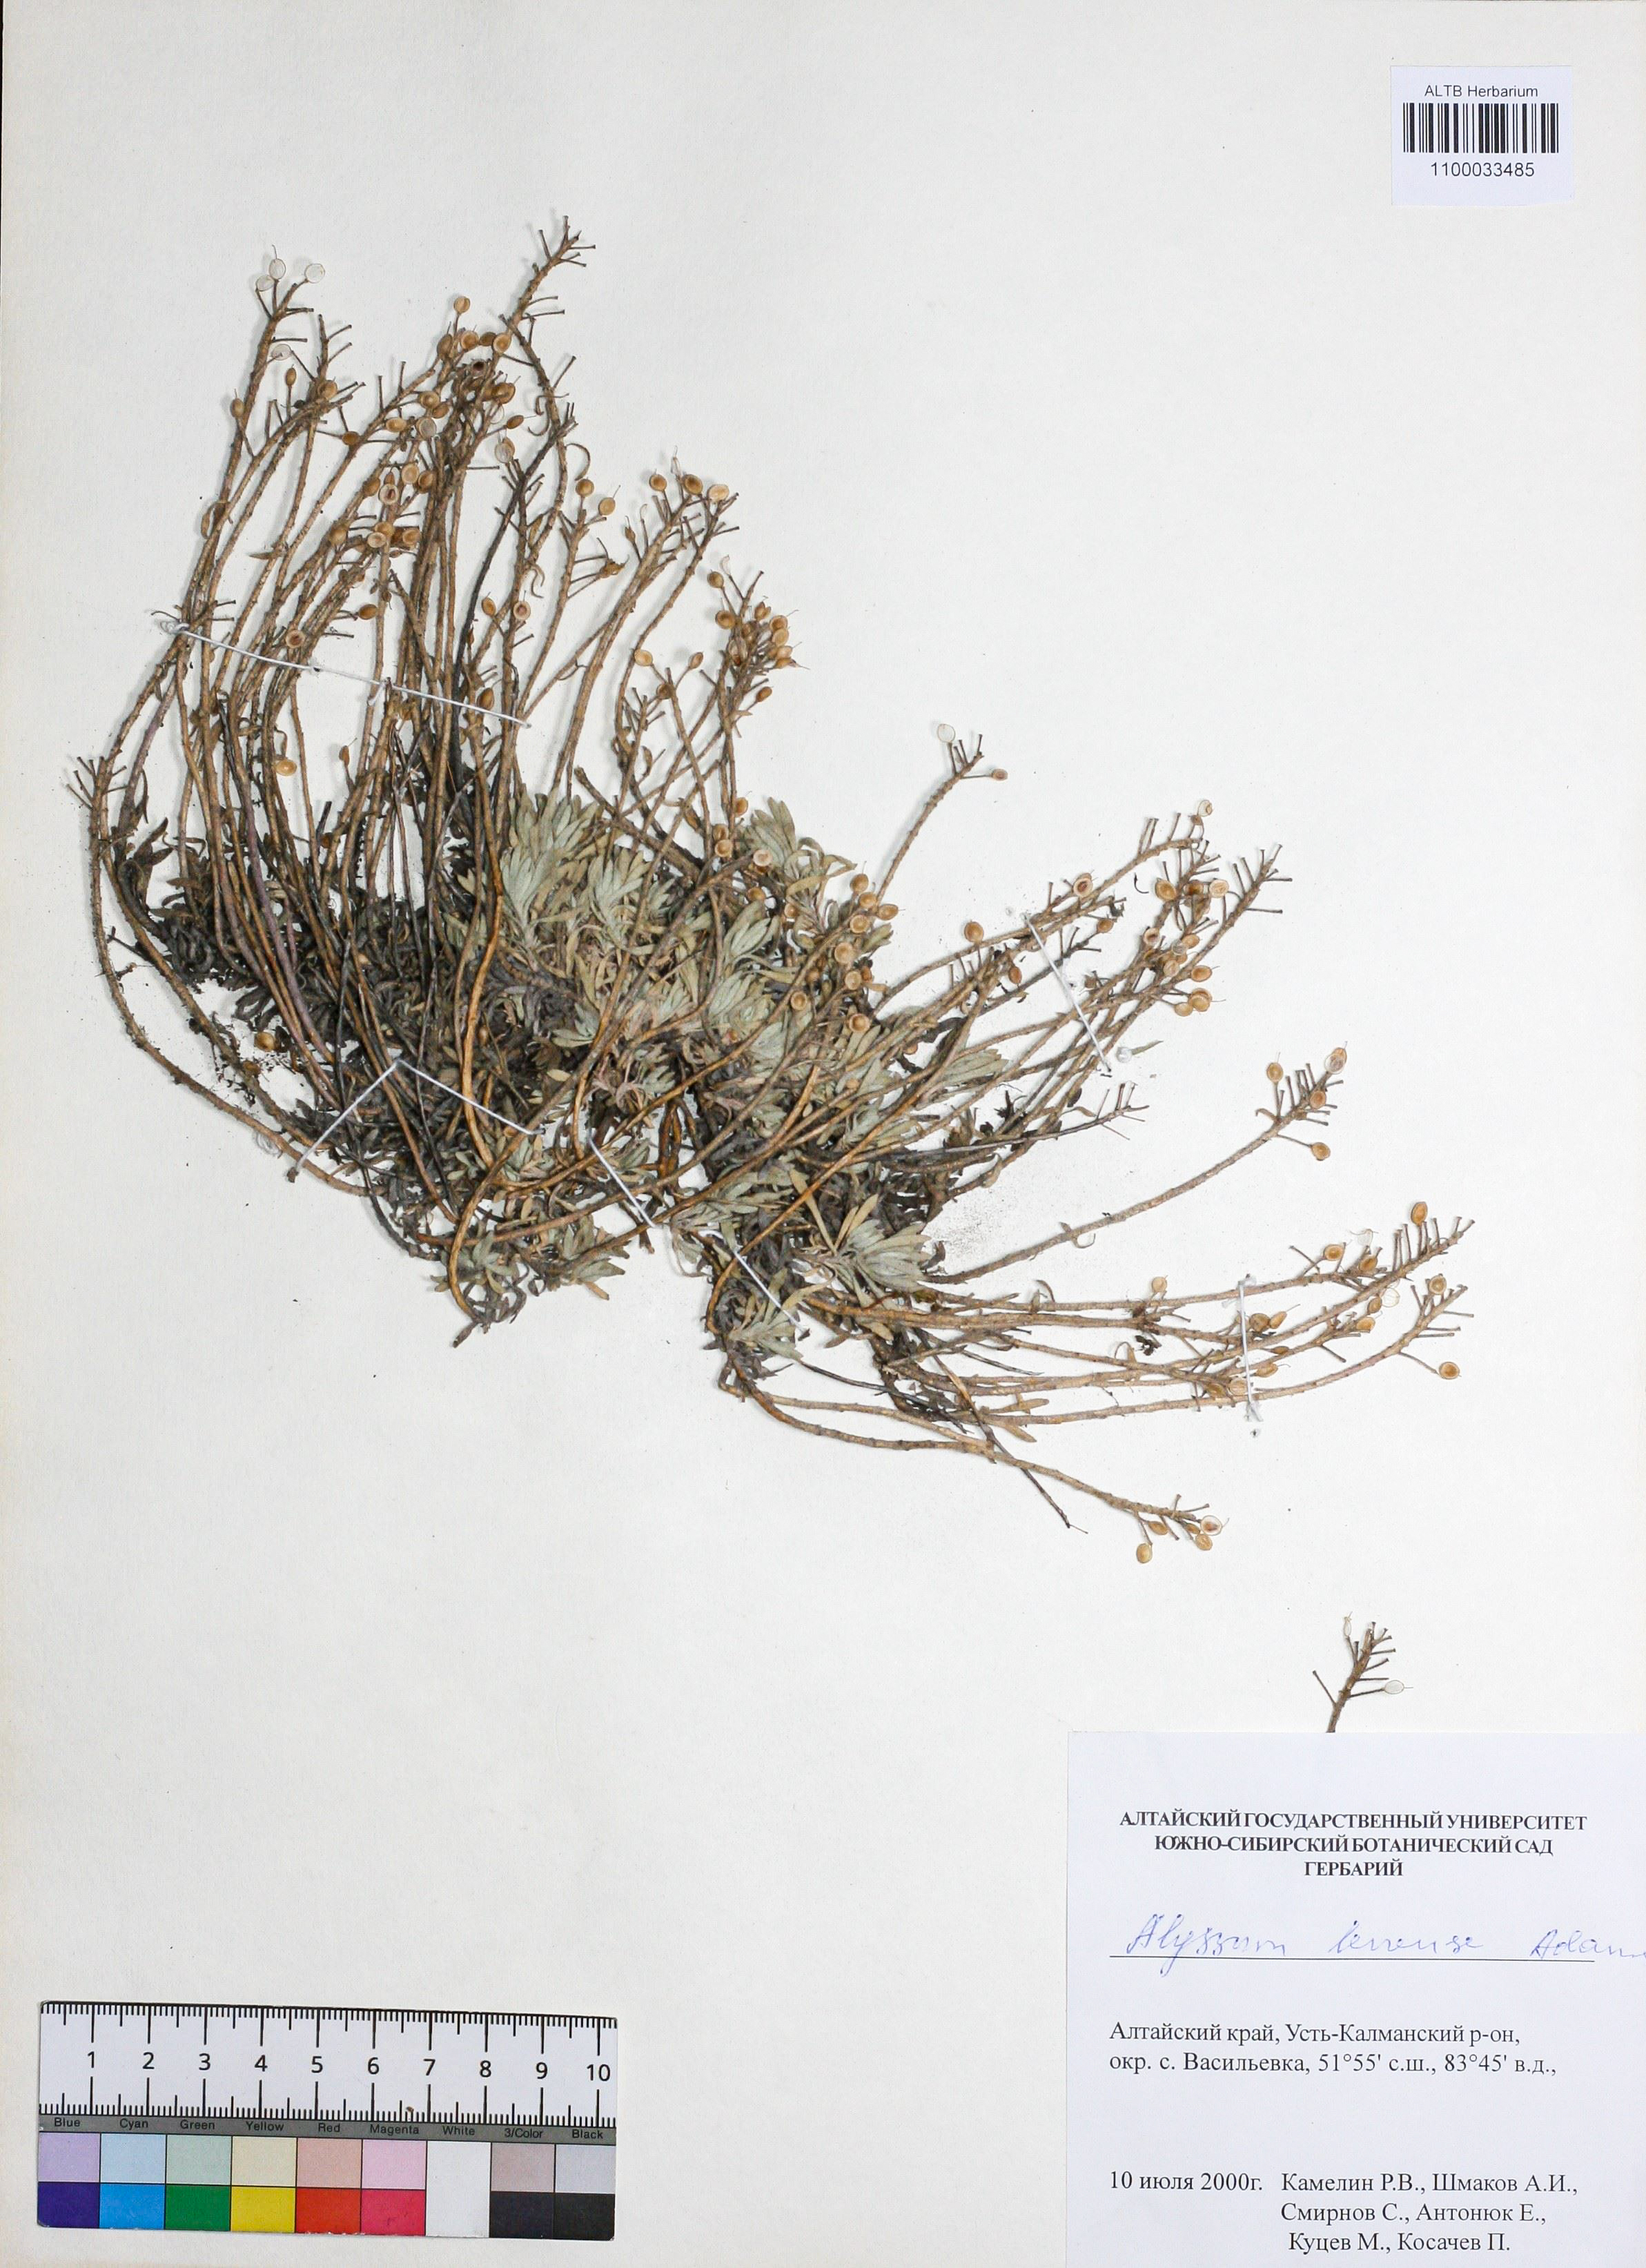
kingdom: Plantae
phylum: Tracheophyta
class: Magnoliopsida
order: Brassicales
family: Brassicaceae
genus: Alyssum
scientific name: Alyssum lenense
